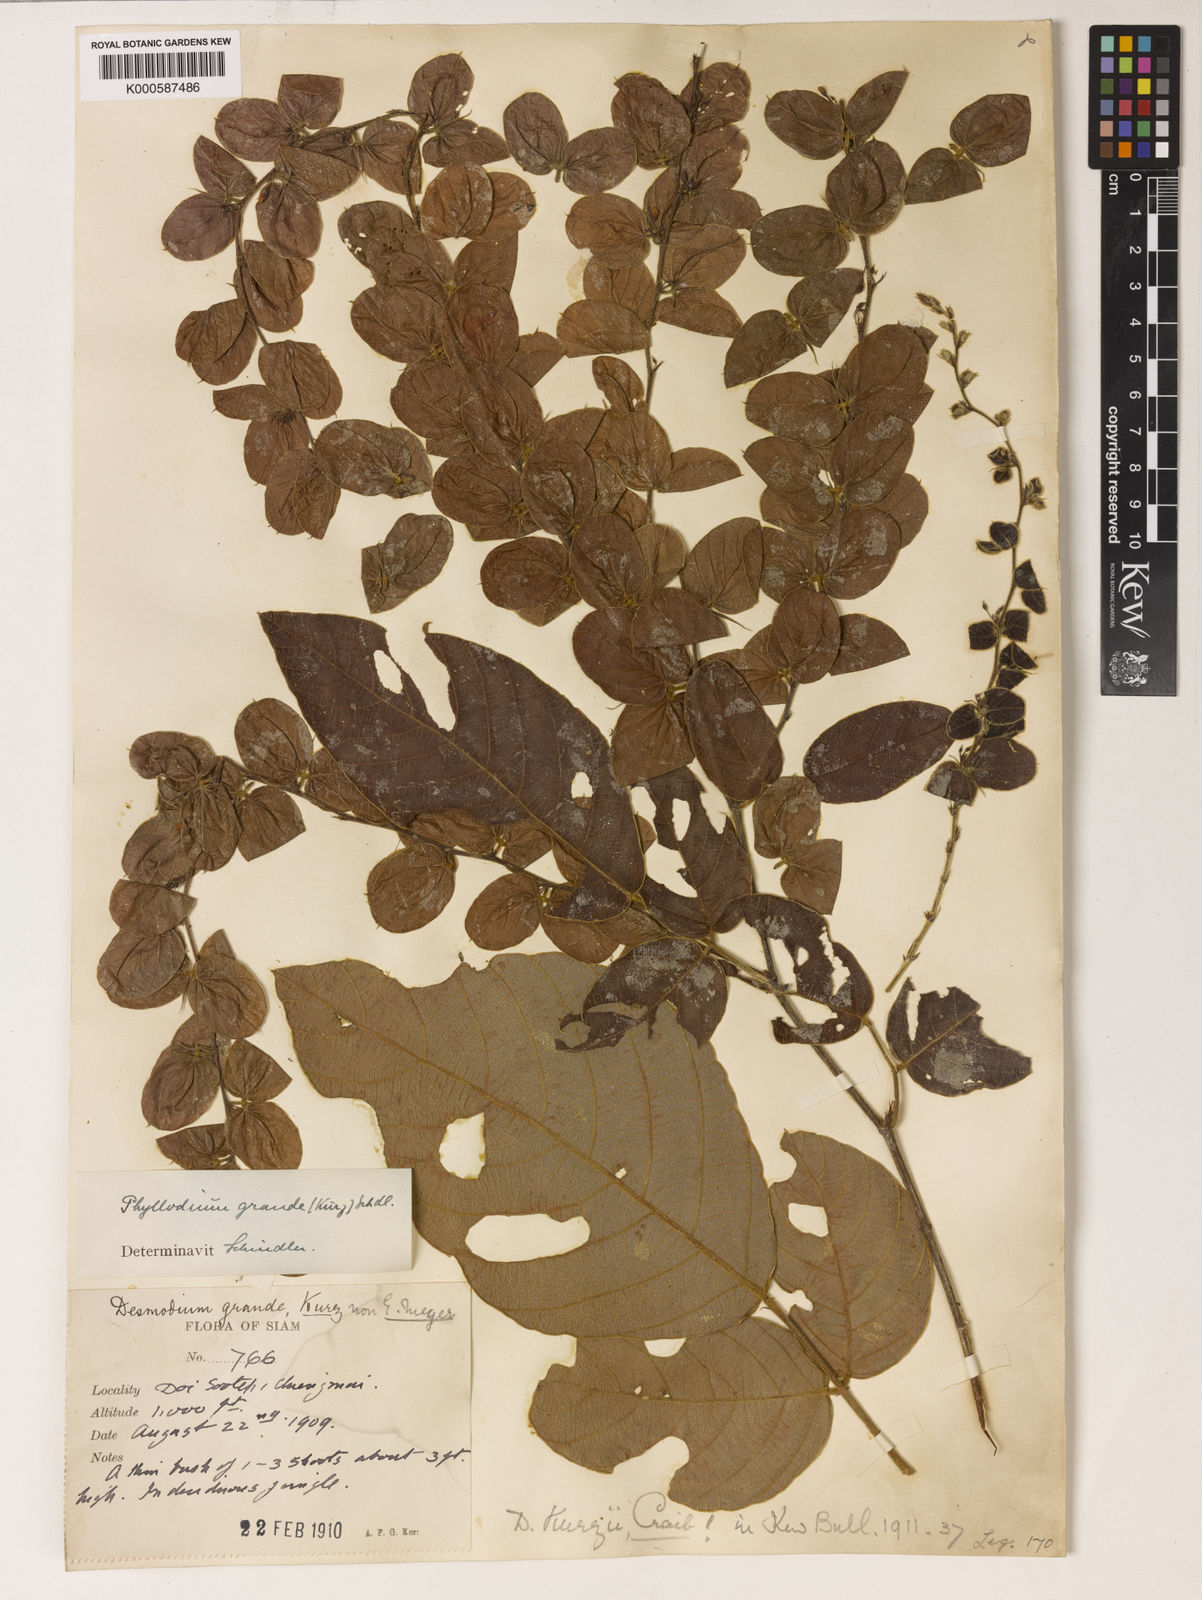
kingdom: Plantae
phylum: Tracheophyta
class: Magnoliopsida
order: Fabales
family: Fabaceae
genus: Phyllodium
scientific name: Phyllodium kurzianum
